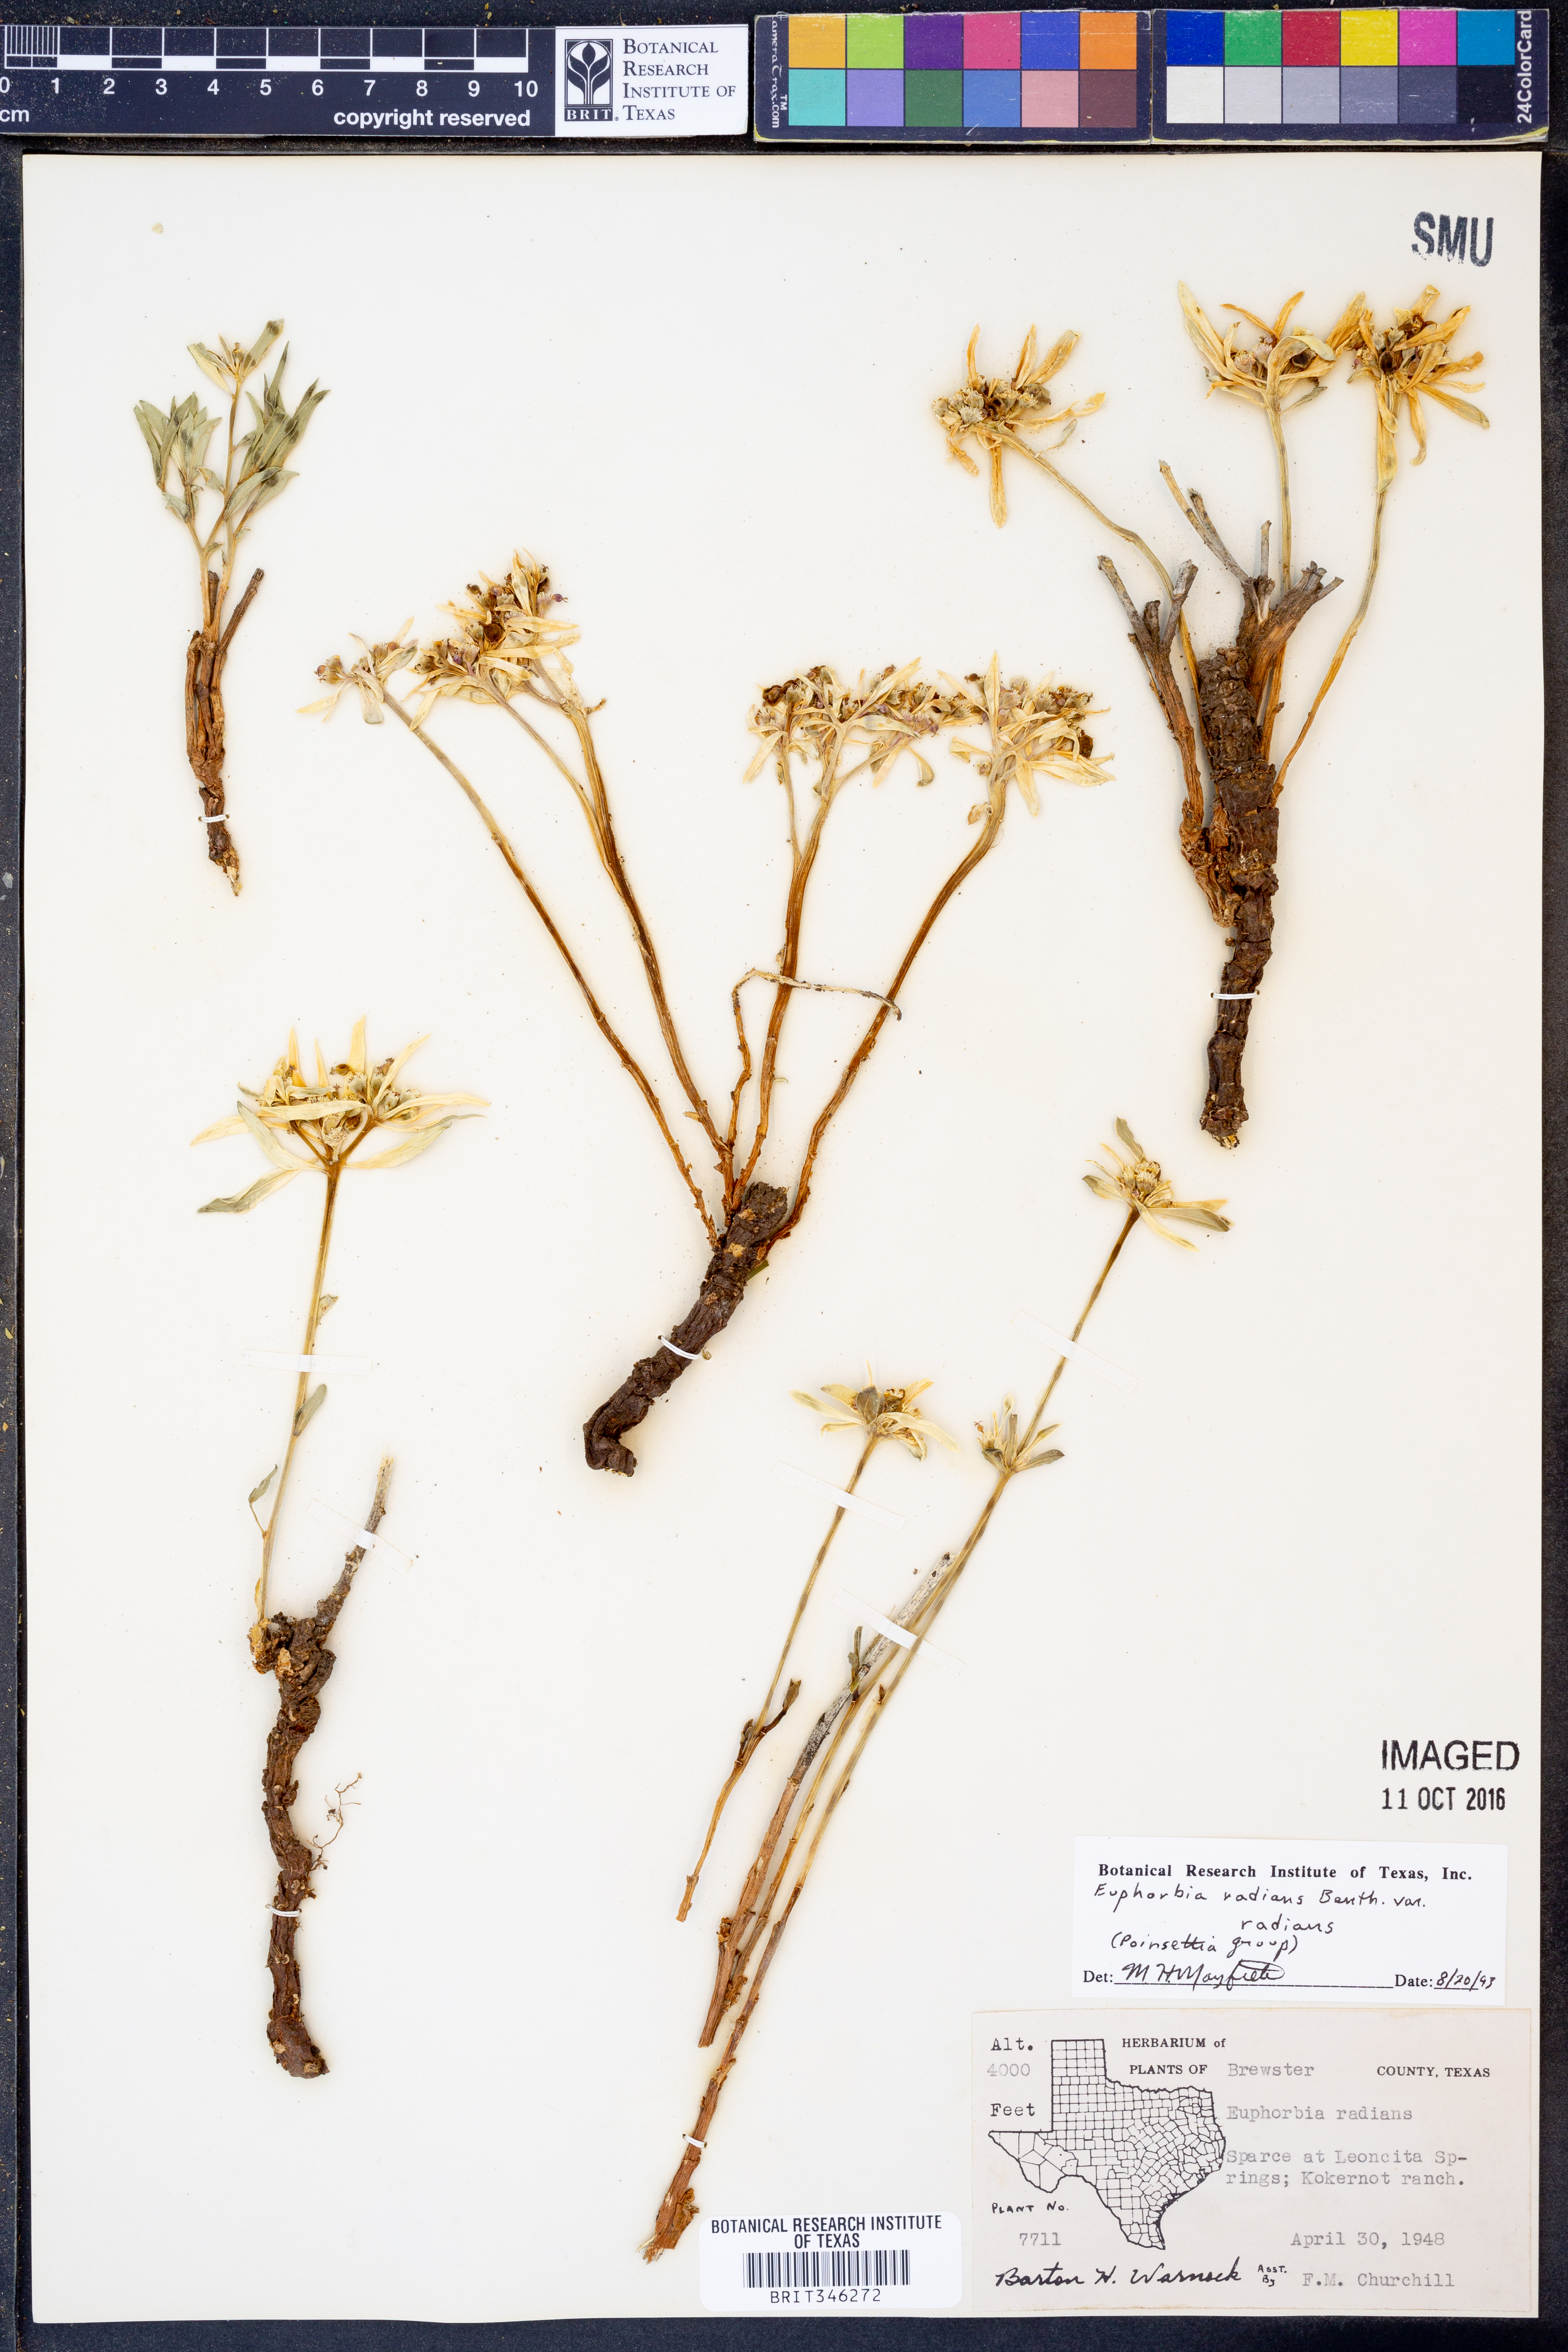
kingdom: Plantae
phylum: Tracheophyta
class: Magnoliopsida
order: Malpighiales
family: Euphorbiaceae
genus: Euphorbia
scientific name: Euphorbia radians
